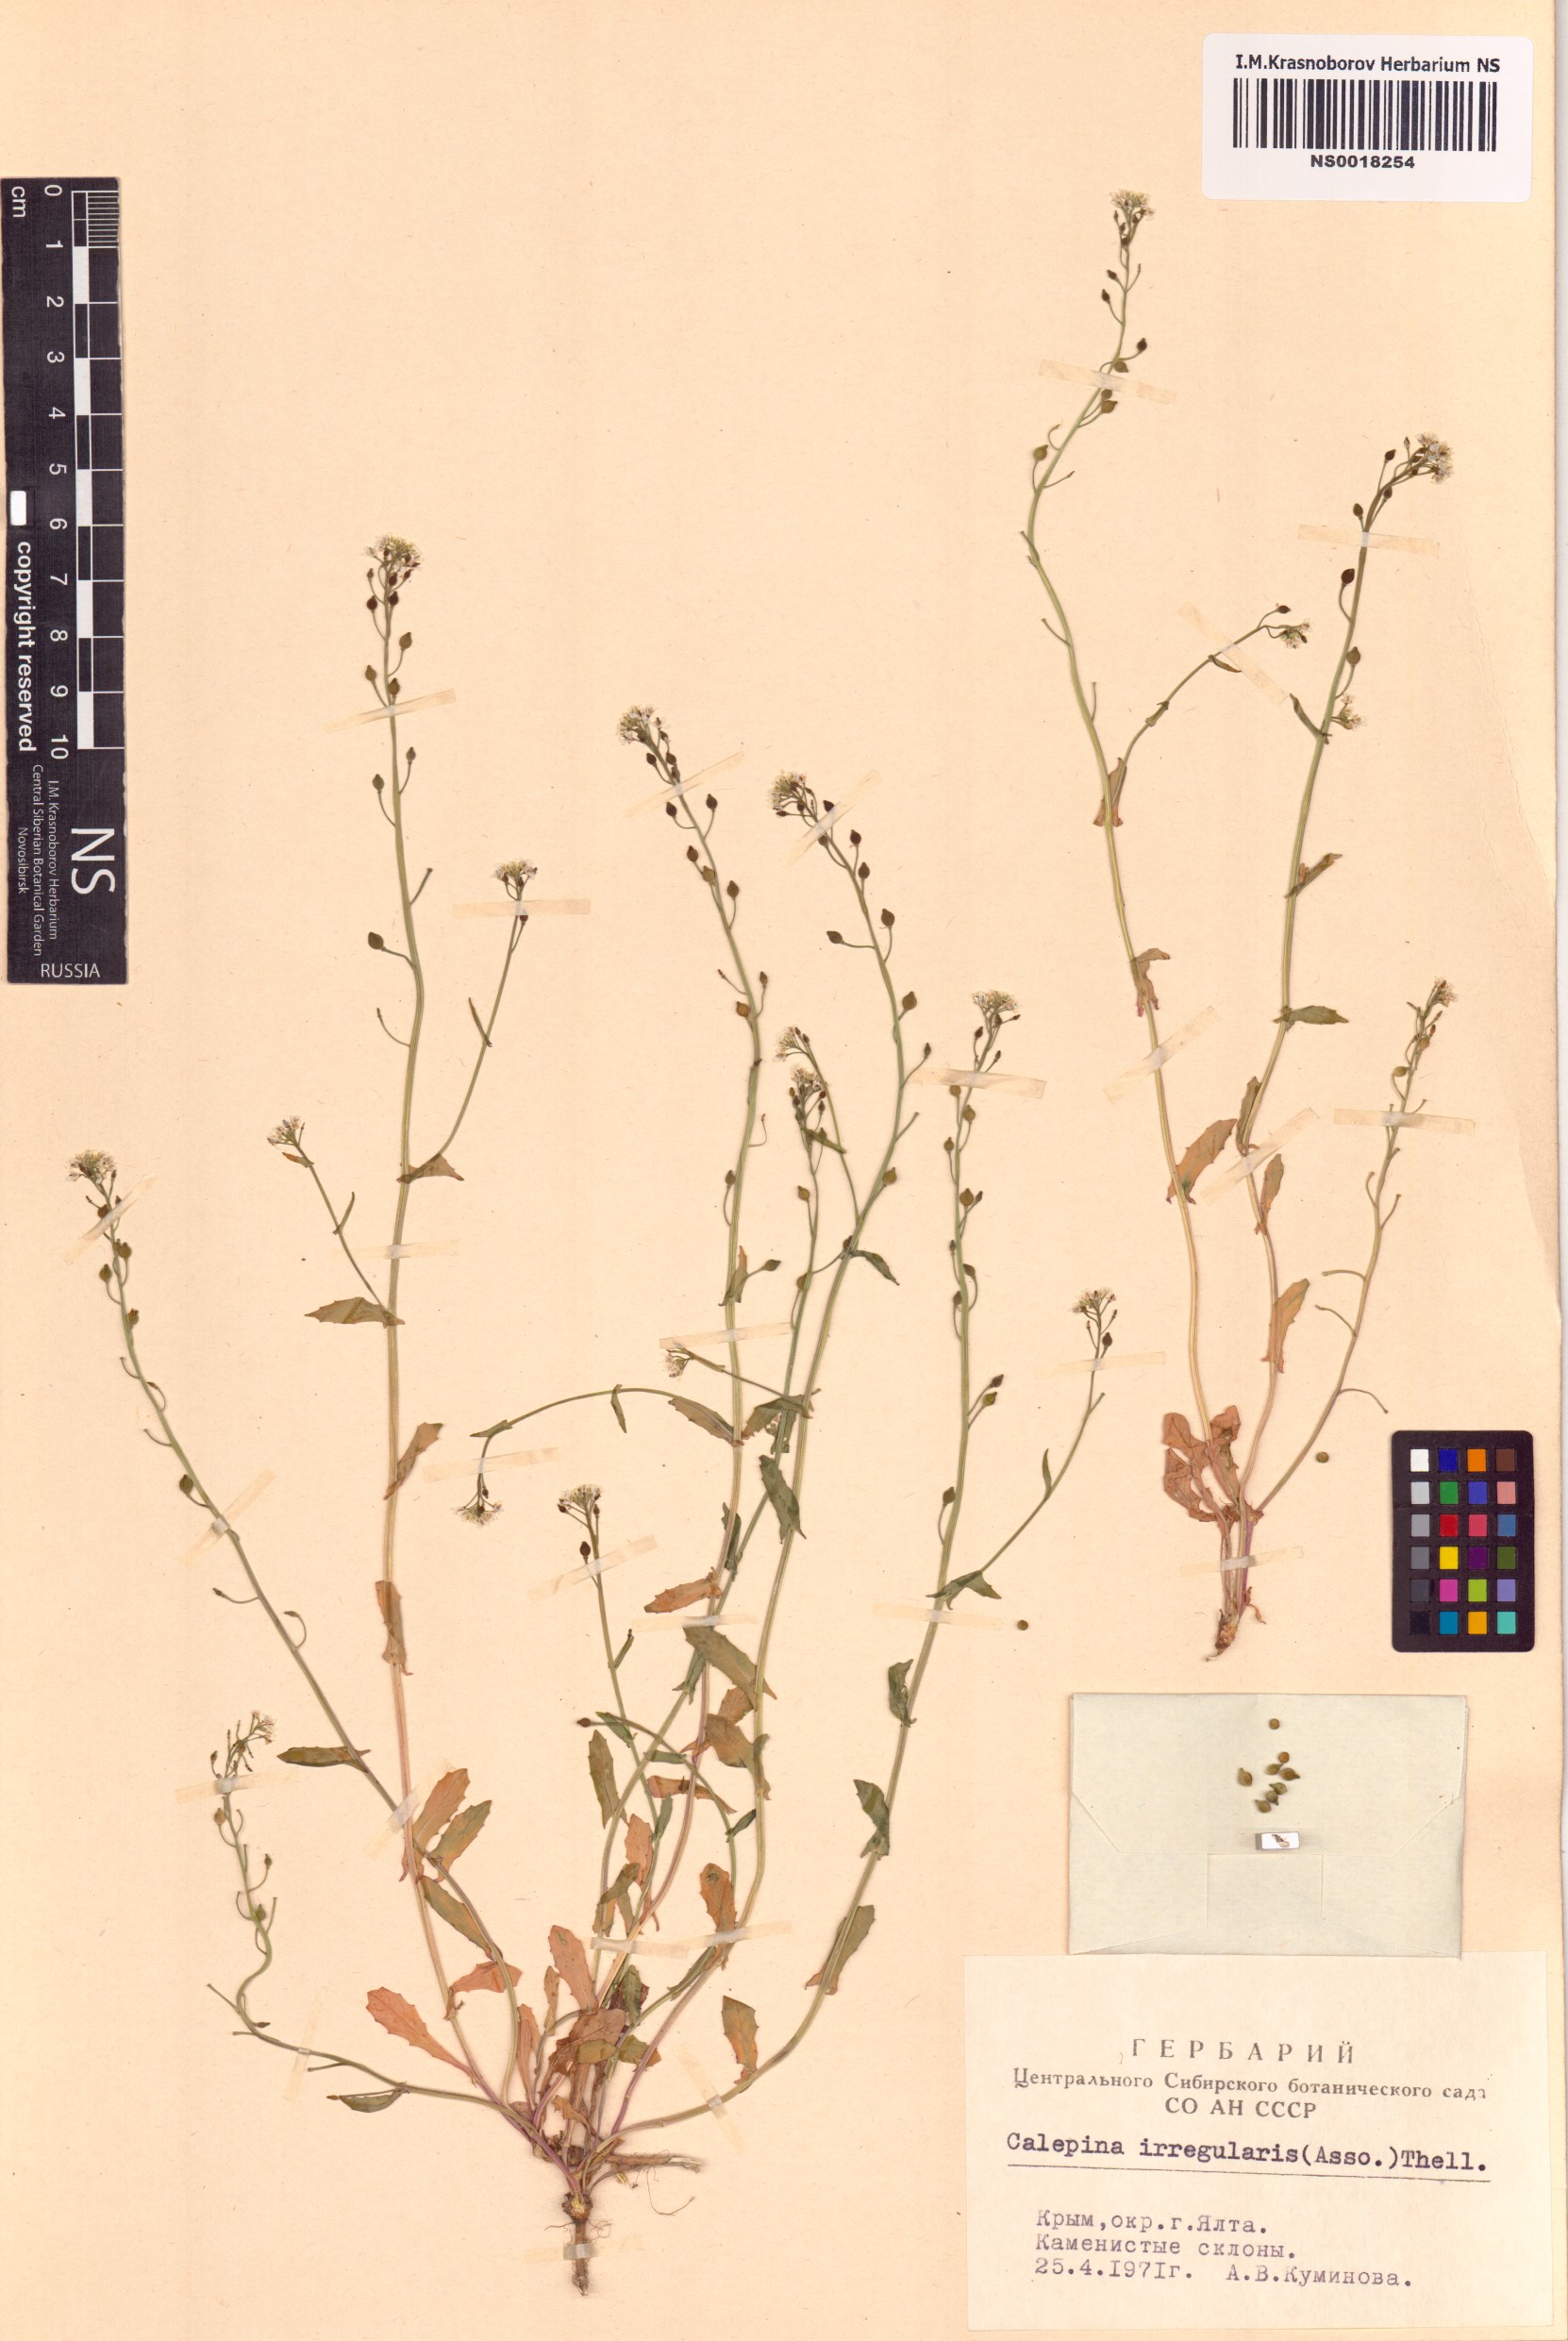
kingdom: Plantae
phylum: Tracheophyta
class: Magnoliopsida
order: Brassicales
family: Brassicaceae
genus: Calepina
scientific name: Calepina irregularis
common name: White ballmustard
